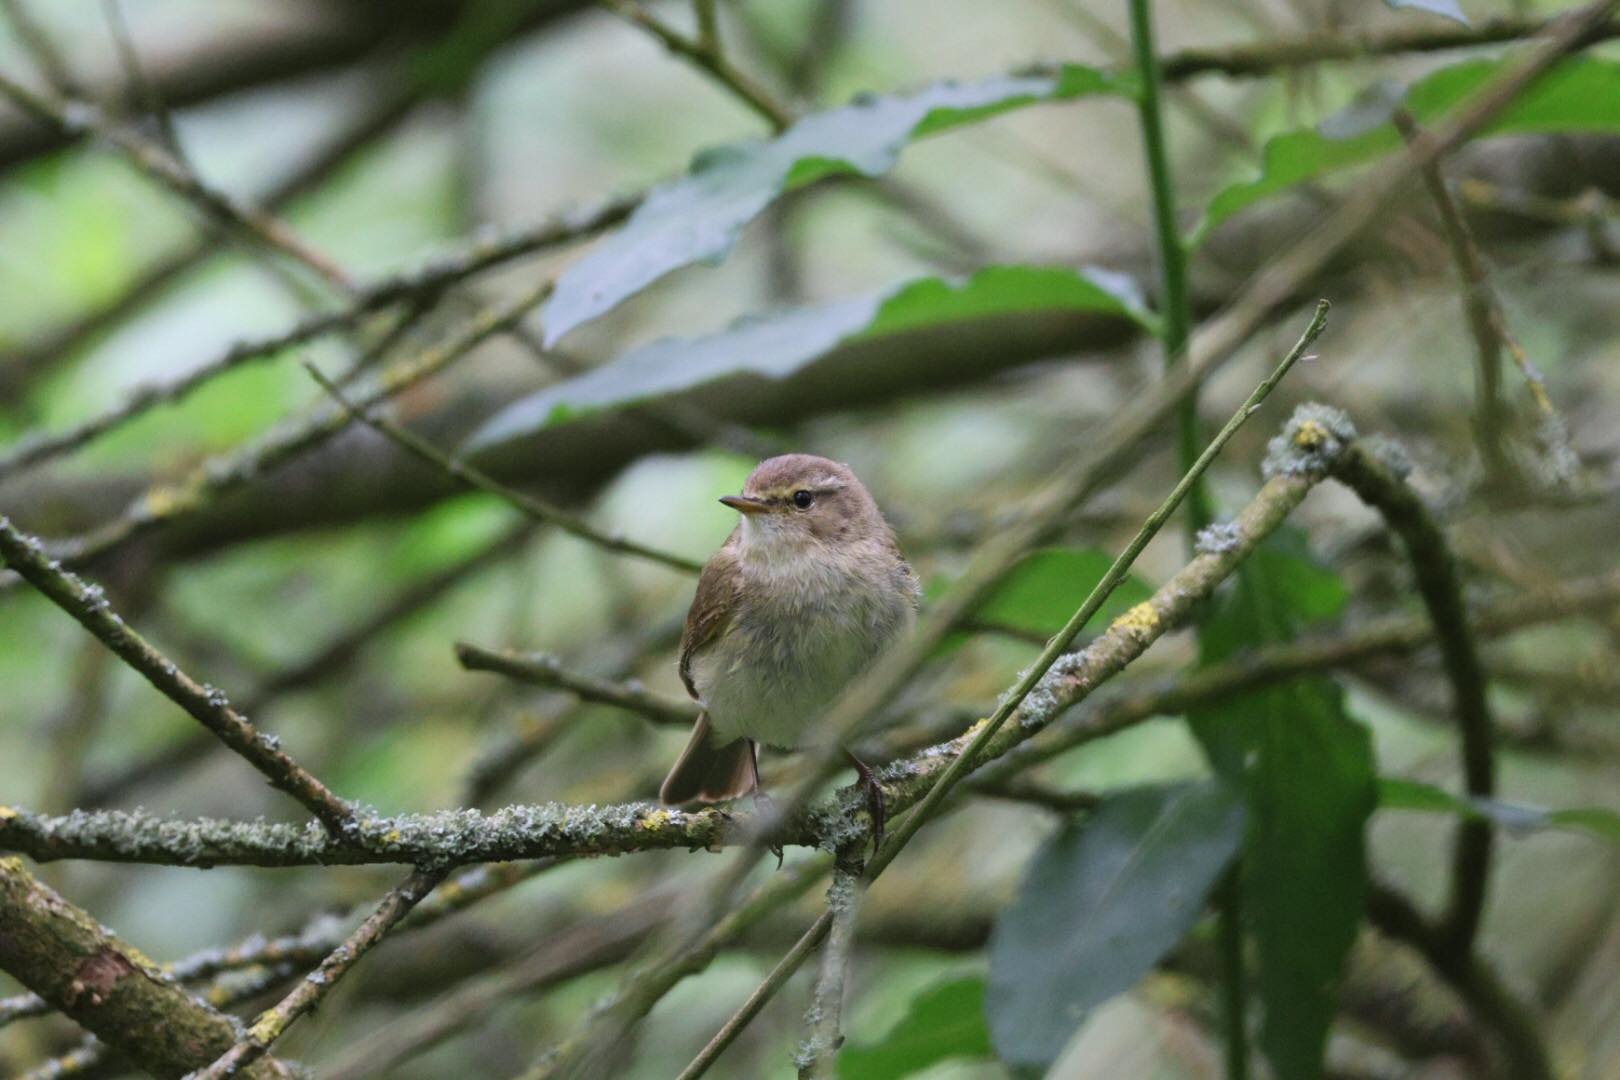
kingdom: Animalia
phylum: Chordata
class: Aves
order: Passeriformes
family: Phylloscopidae
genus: Phylloscopus
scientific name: Phylloscopus collybita
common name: Gransanger
